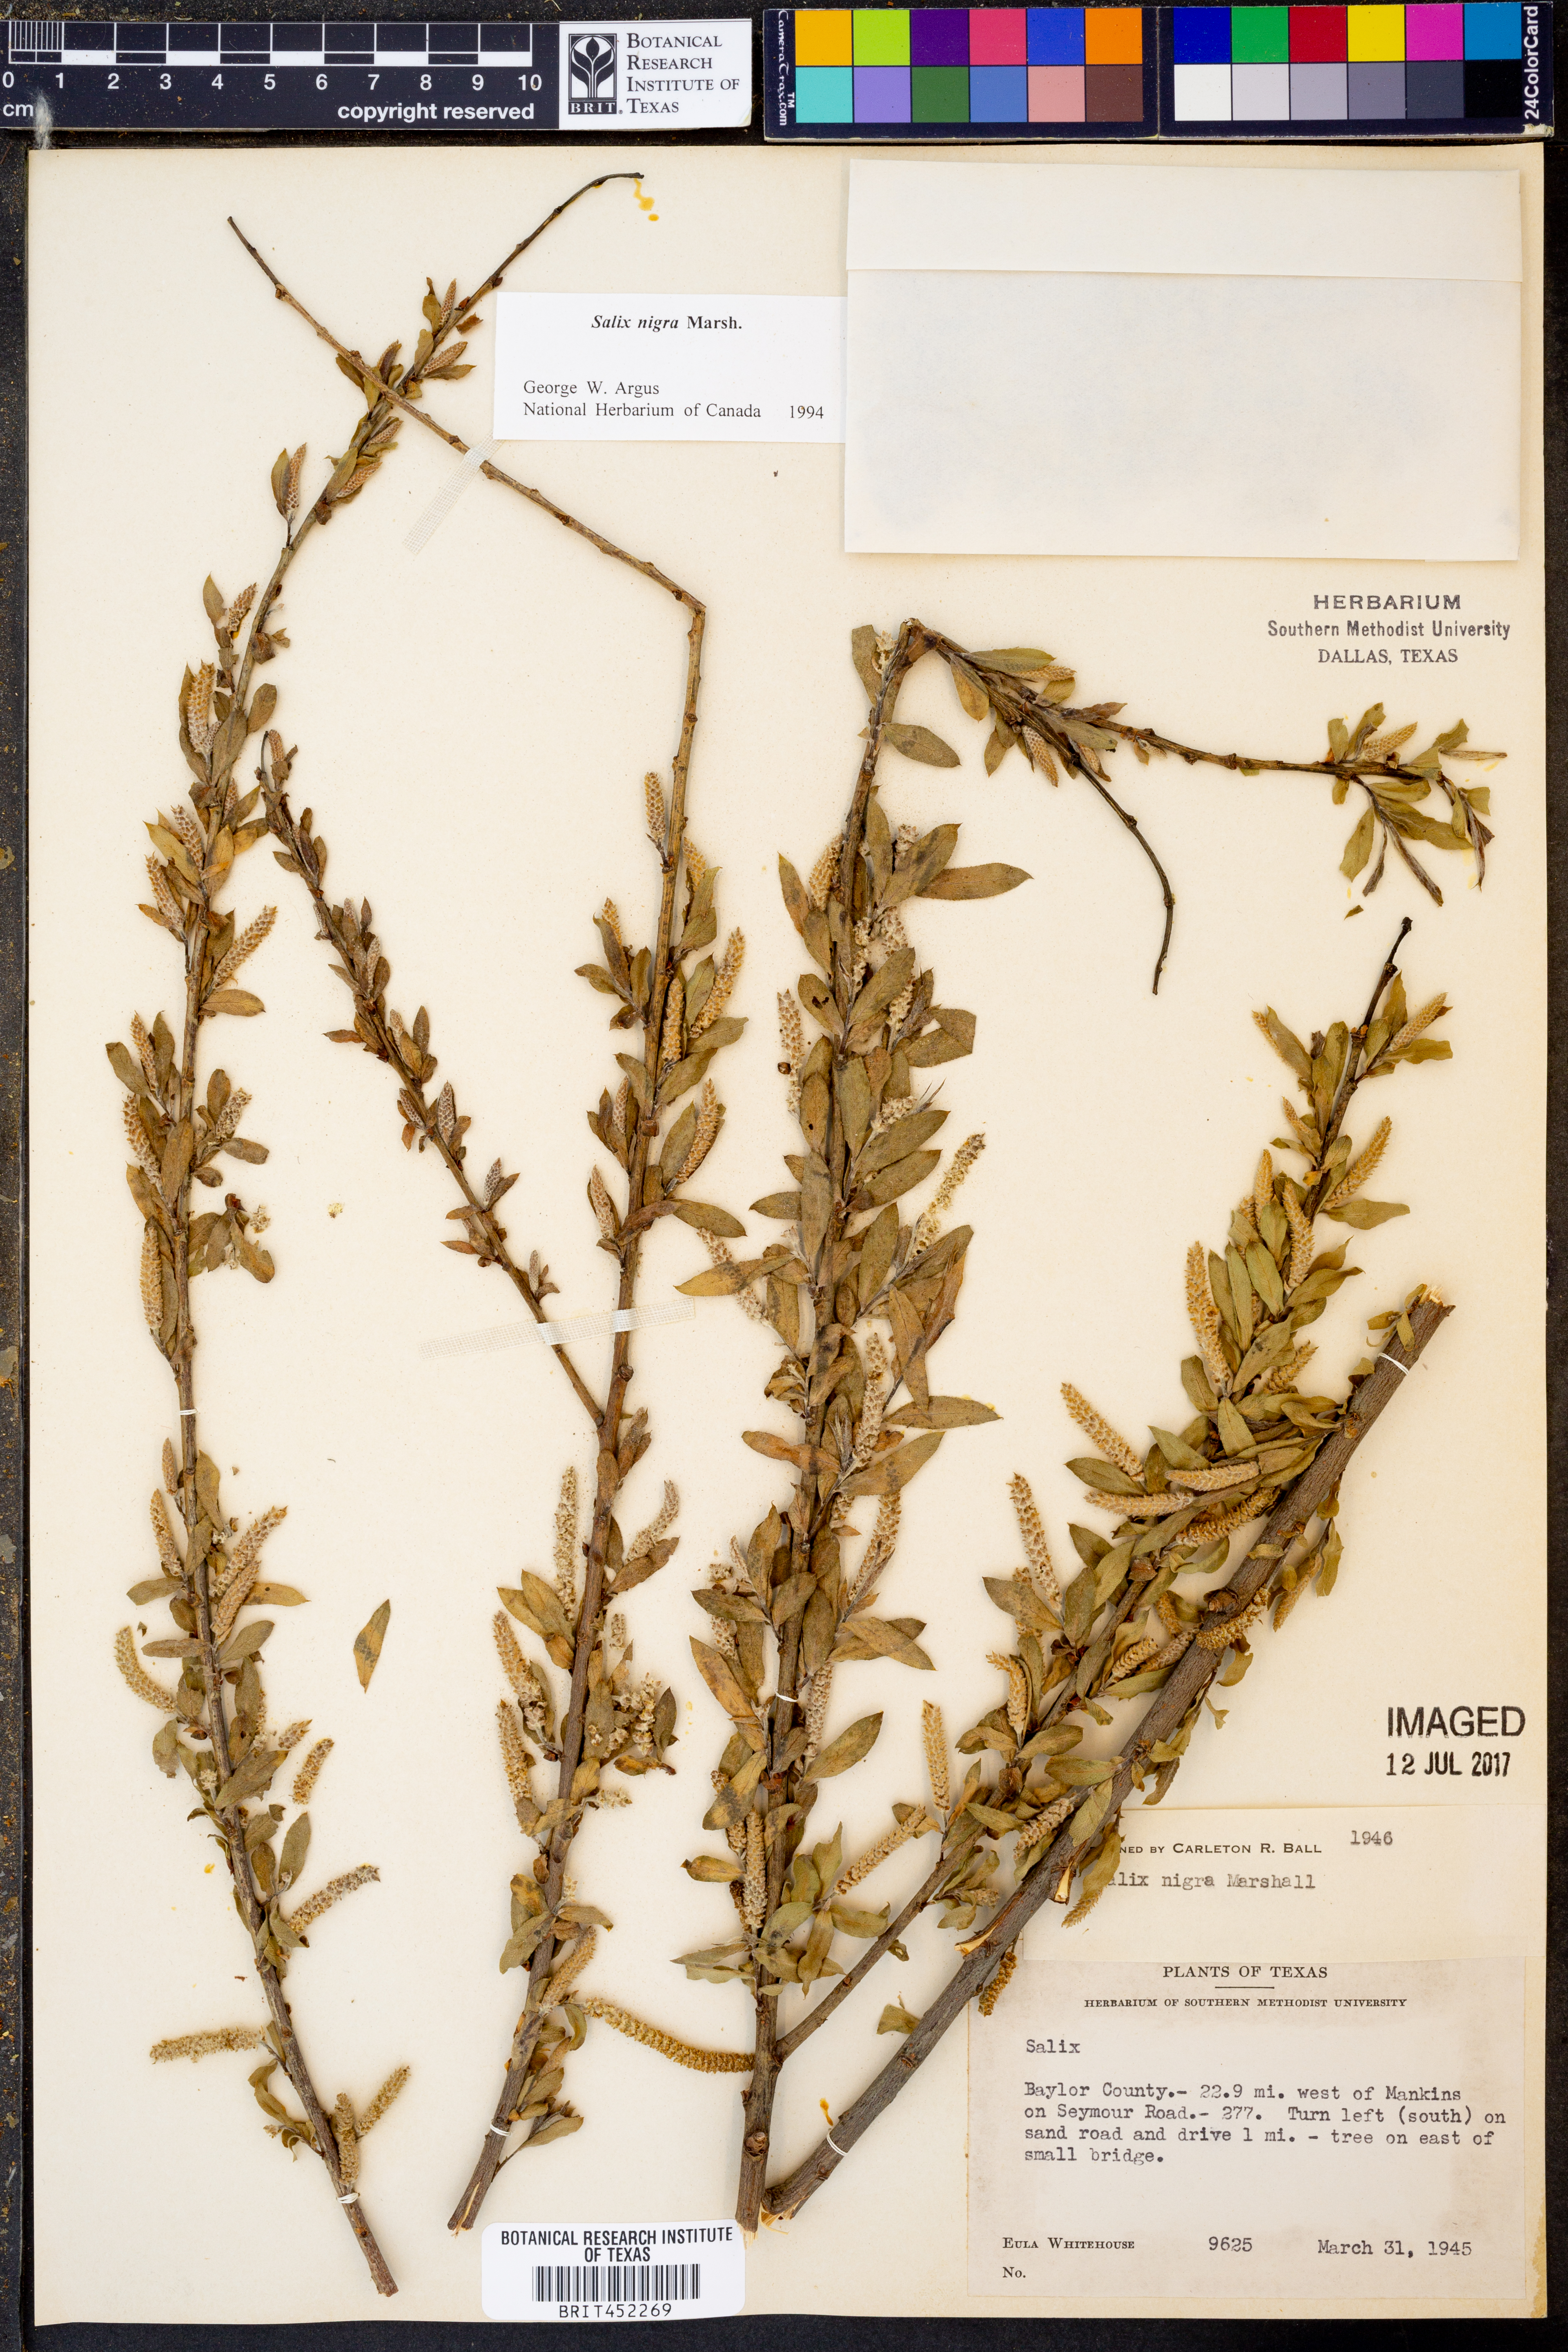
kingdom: Plantae
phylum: Tracheophyta
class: Magnoliopsida
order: Malpighiales
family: Salicaceae
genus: Salix
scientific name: Salix nigra
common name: Black willow
